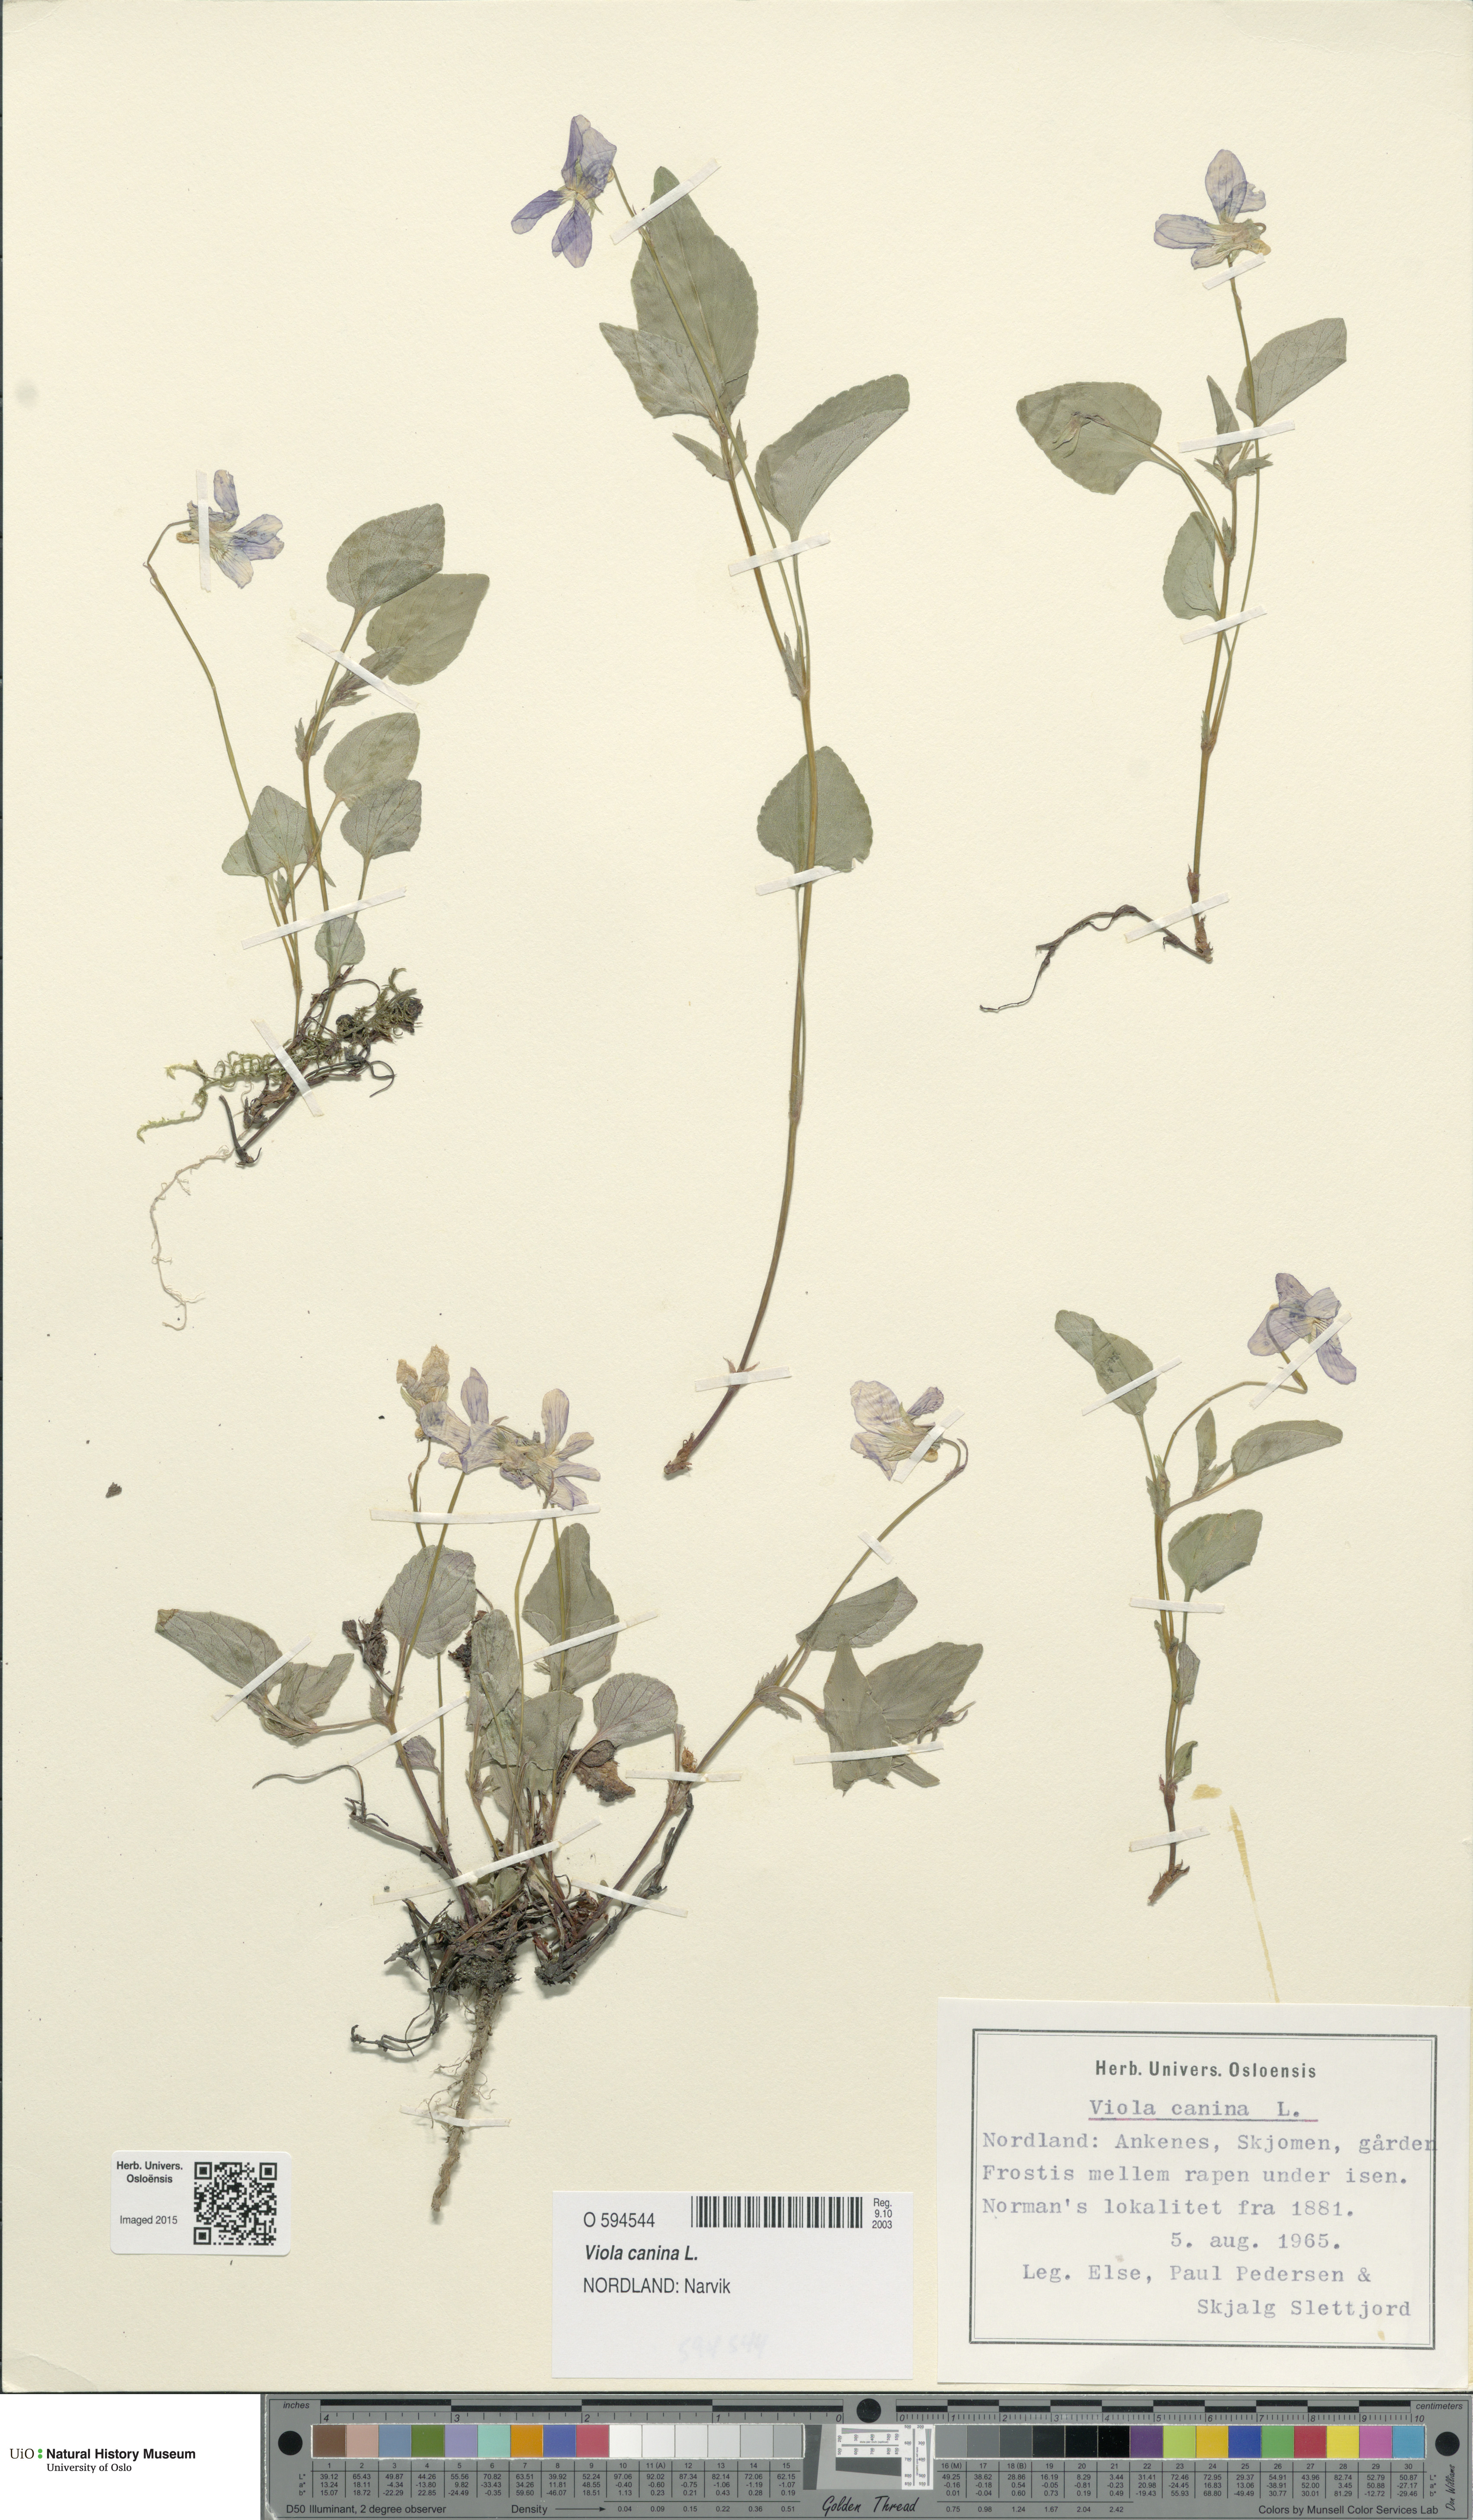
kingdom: Plantae
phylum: Tracheophyta
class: Magnoliopsida
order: Malpighiales
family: Violaceae
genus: Viola
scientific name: Viola canina
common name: Heath dog-violet
